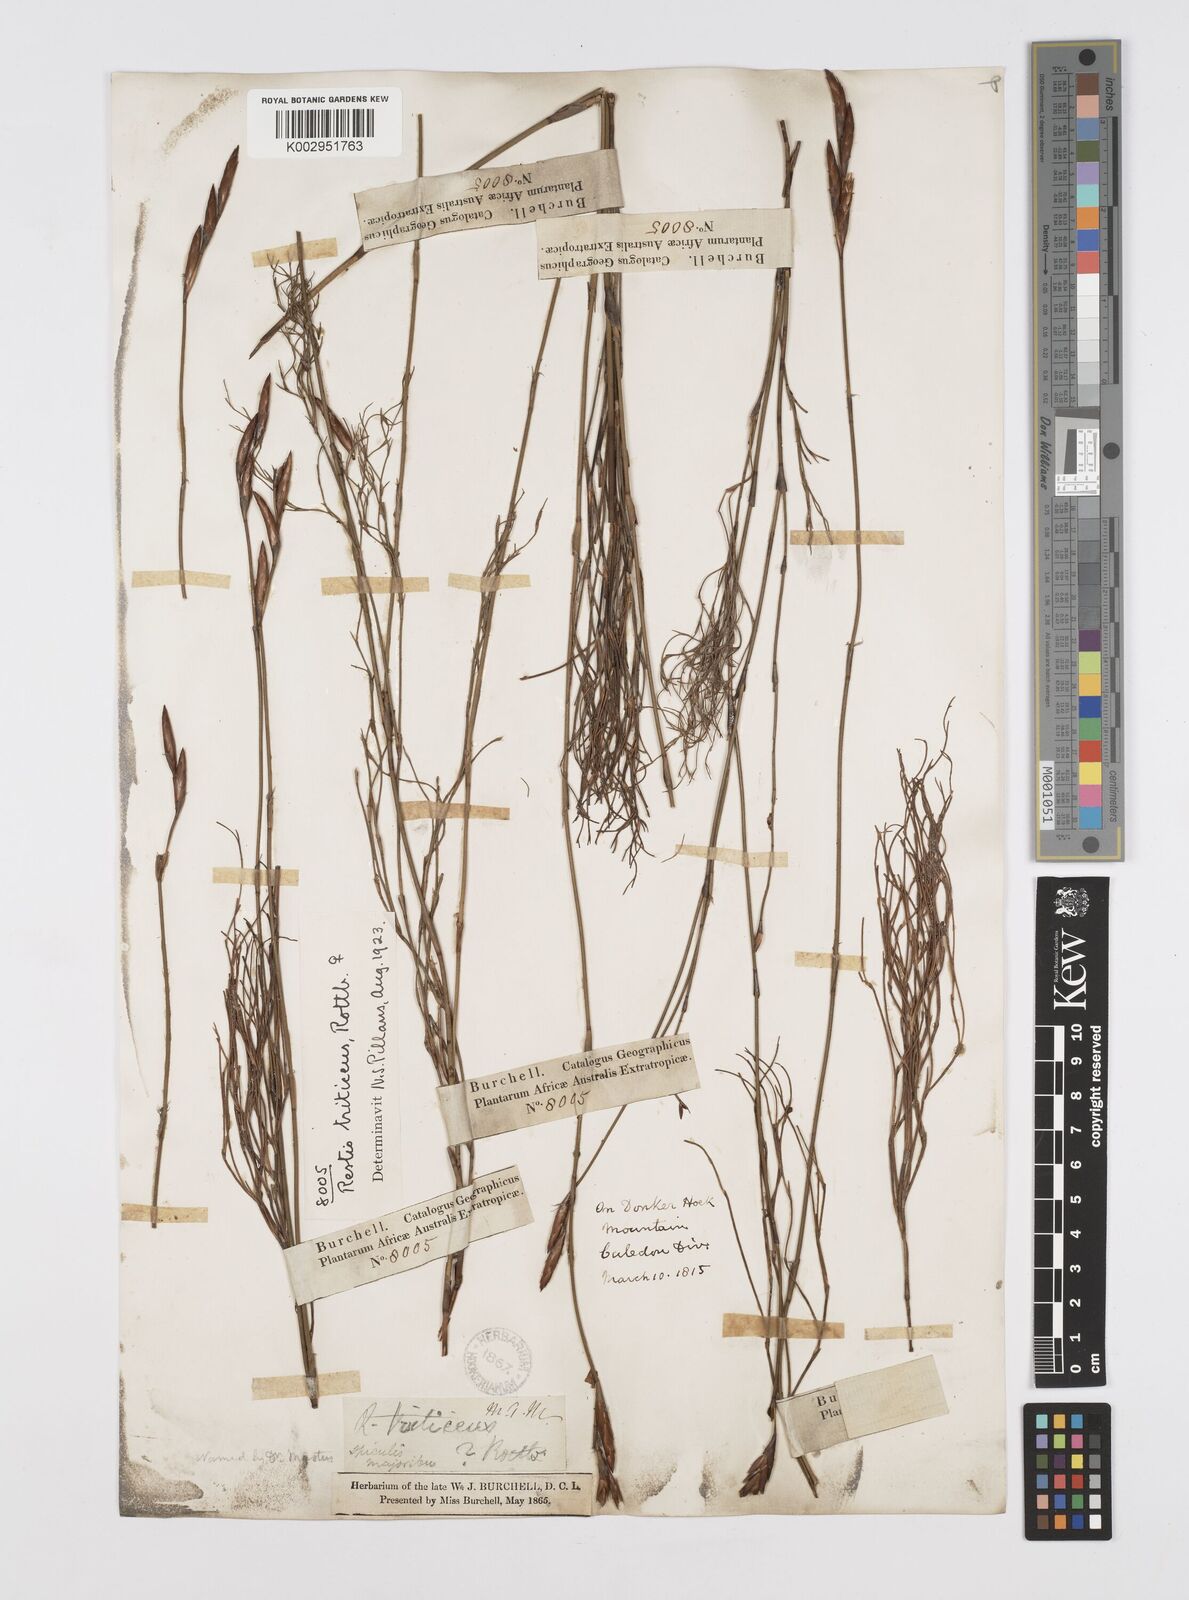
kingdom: Plantae
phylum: Tracheophyta
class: Liliopsida
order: Poales
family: Restionaceae
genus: Restio
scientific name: Restio triticeus
